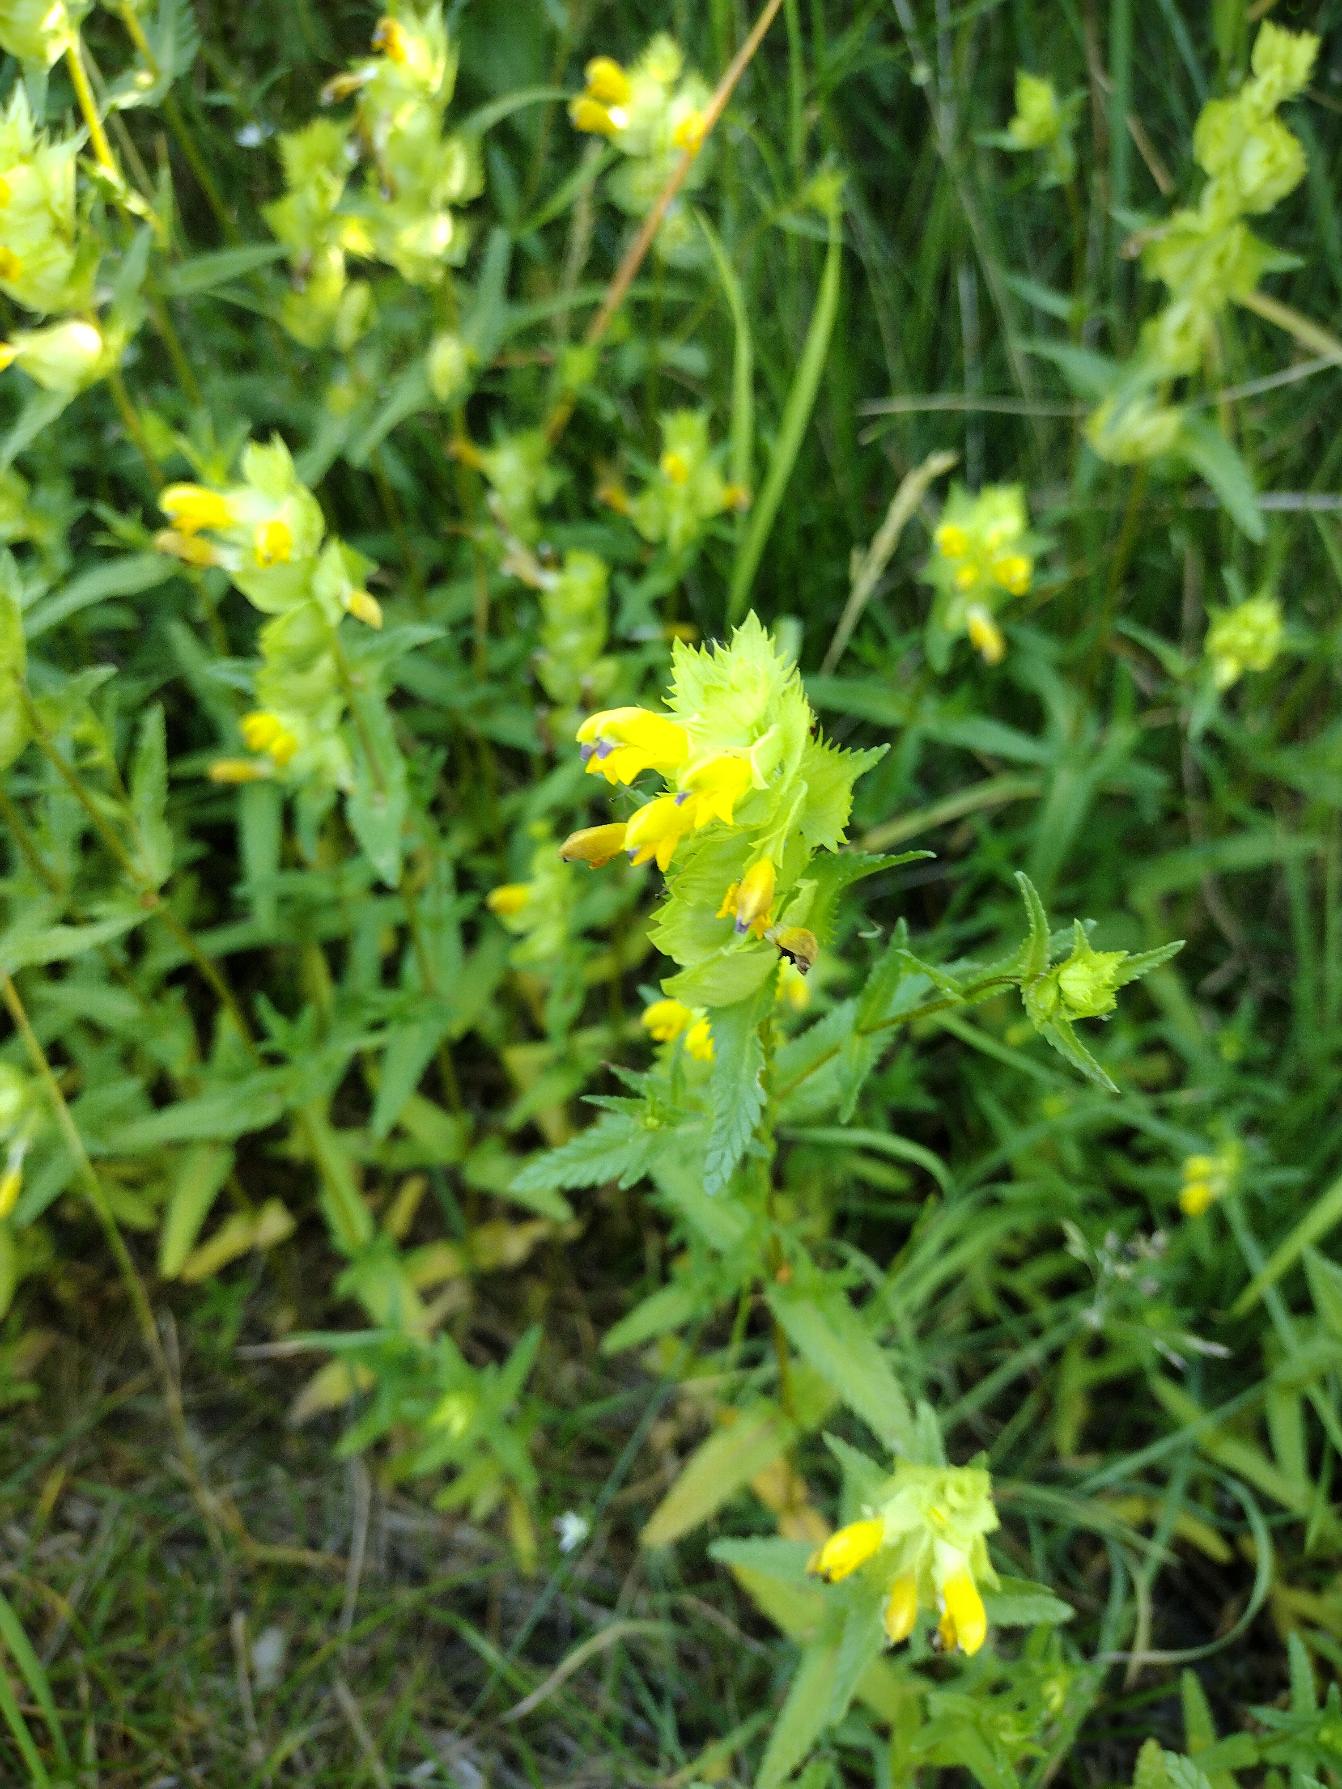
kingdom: Plantae
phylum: Tracheophyta
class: Magnoliopsida
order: Lamiales
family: Orobanchaceae
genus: Rhinanthus
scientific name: Rhinanthus
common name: Stor skjaller
